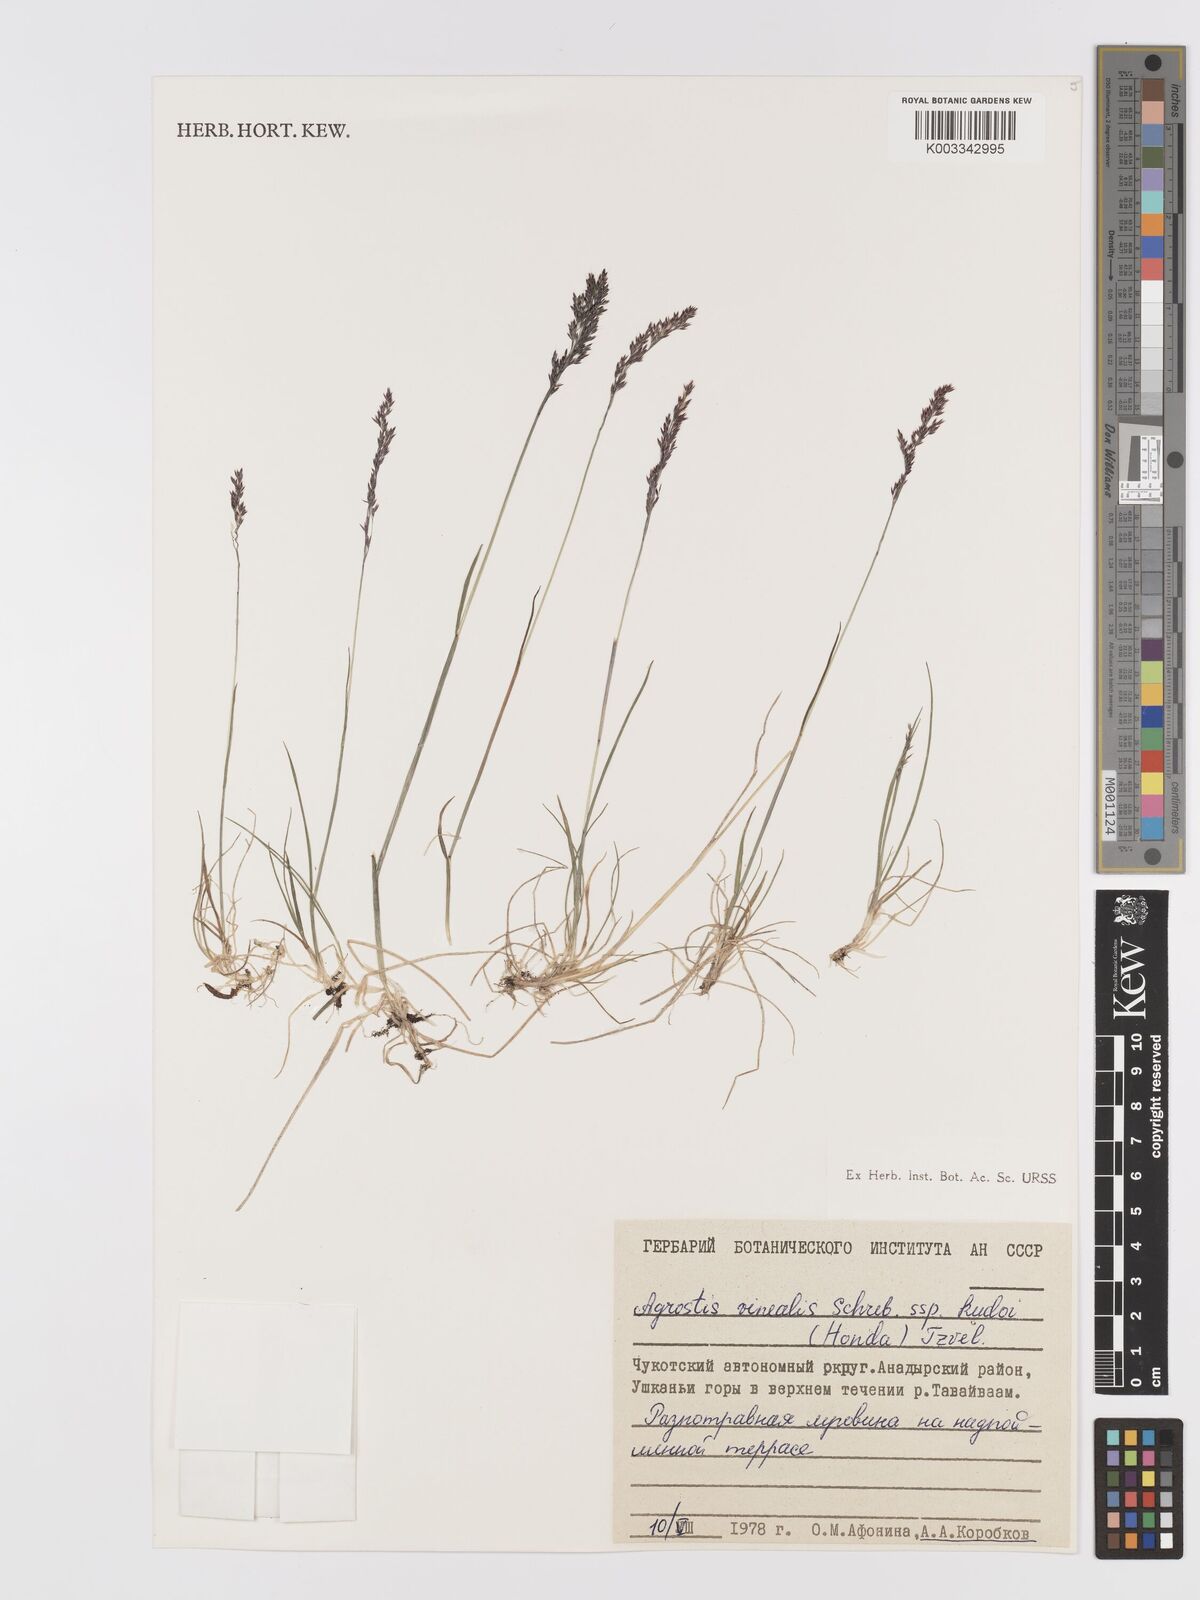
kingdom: Plantae
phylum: Tracheophyta
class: Liliopsida
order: Poales
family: Poaceae
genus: Agrostis
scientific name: Agrostis canina
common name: Velvet bent
